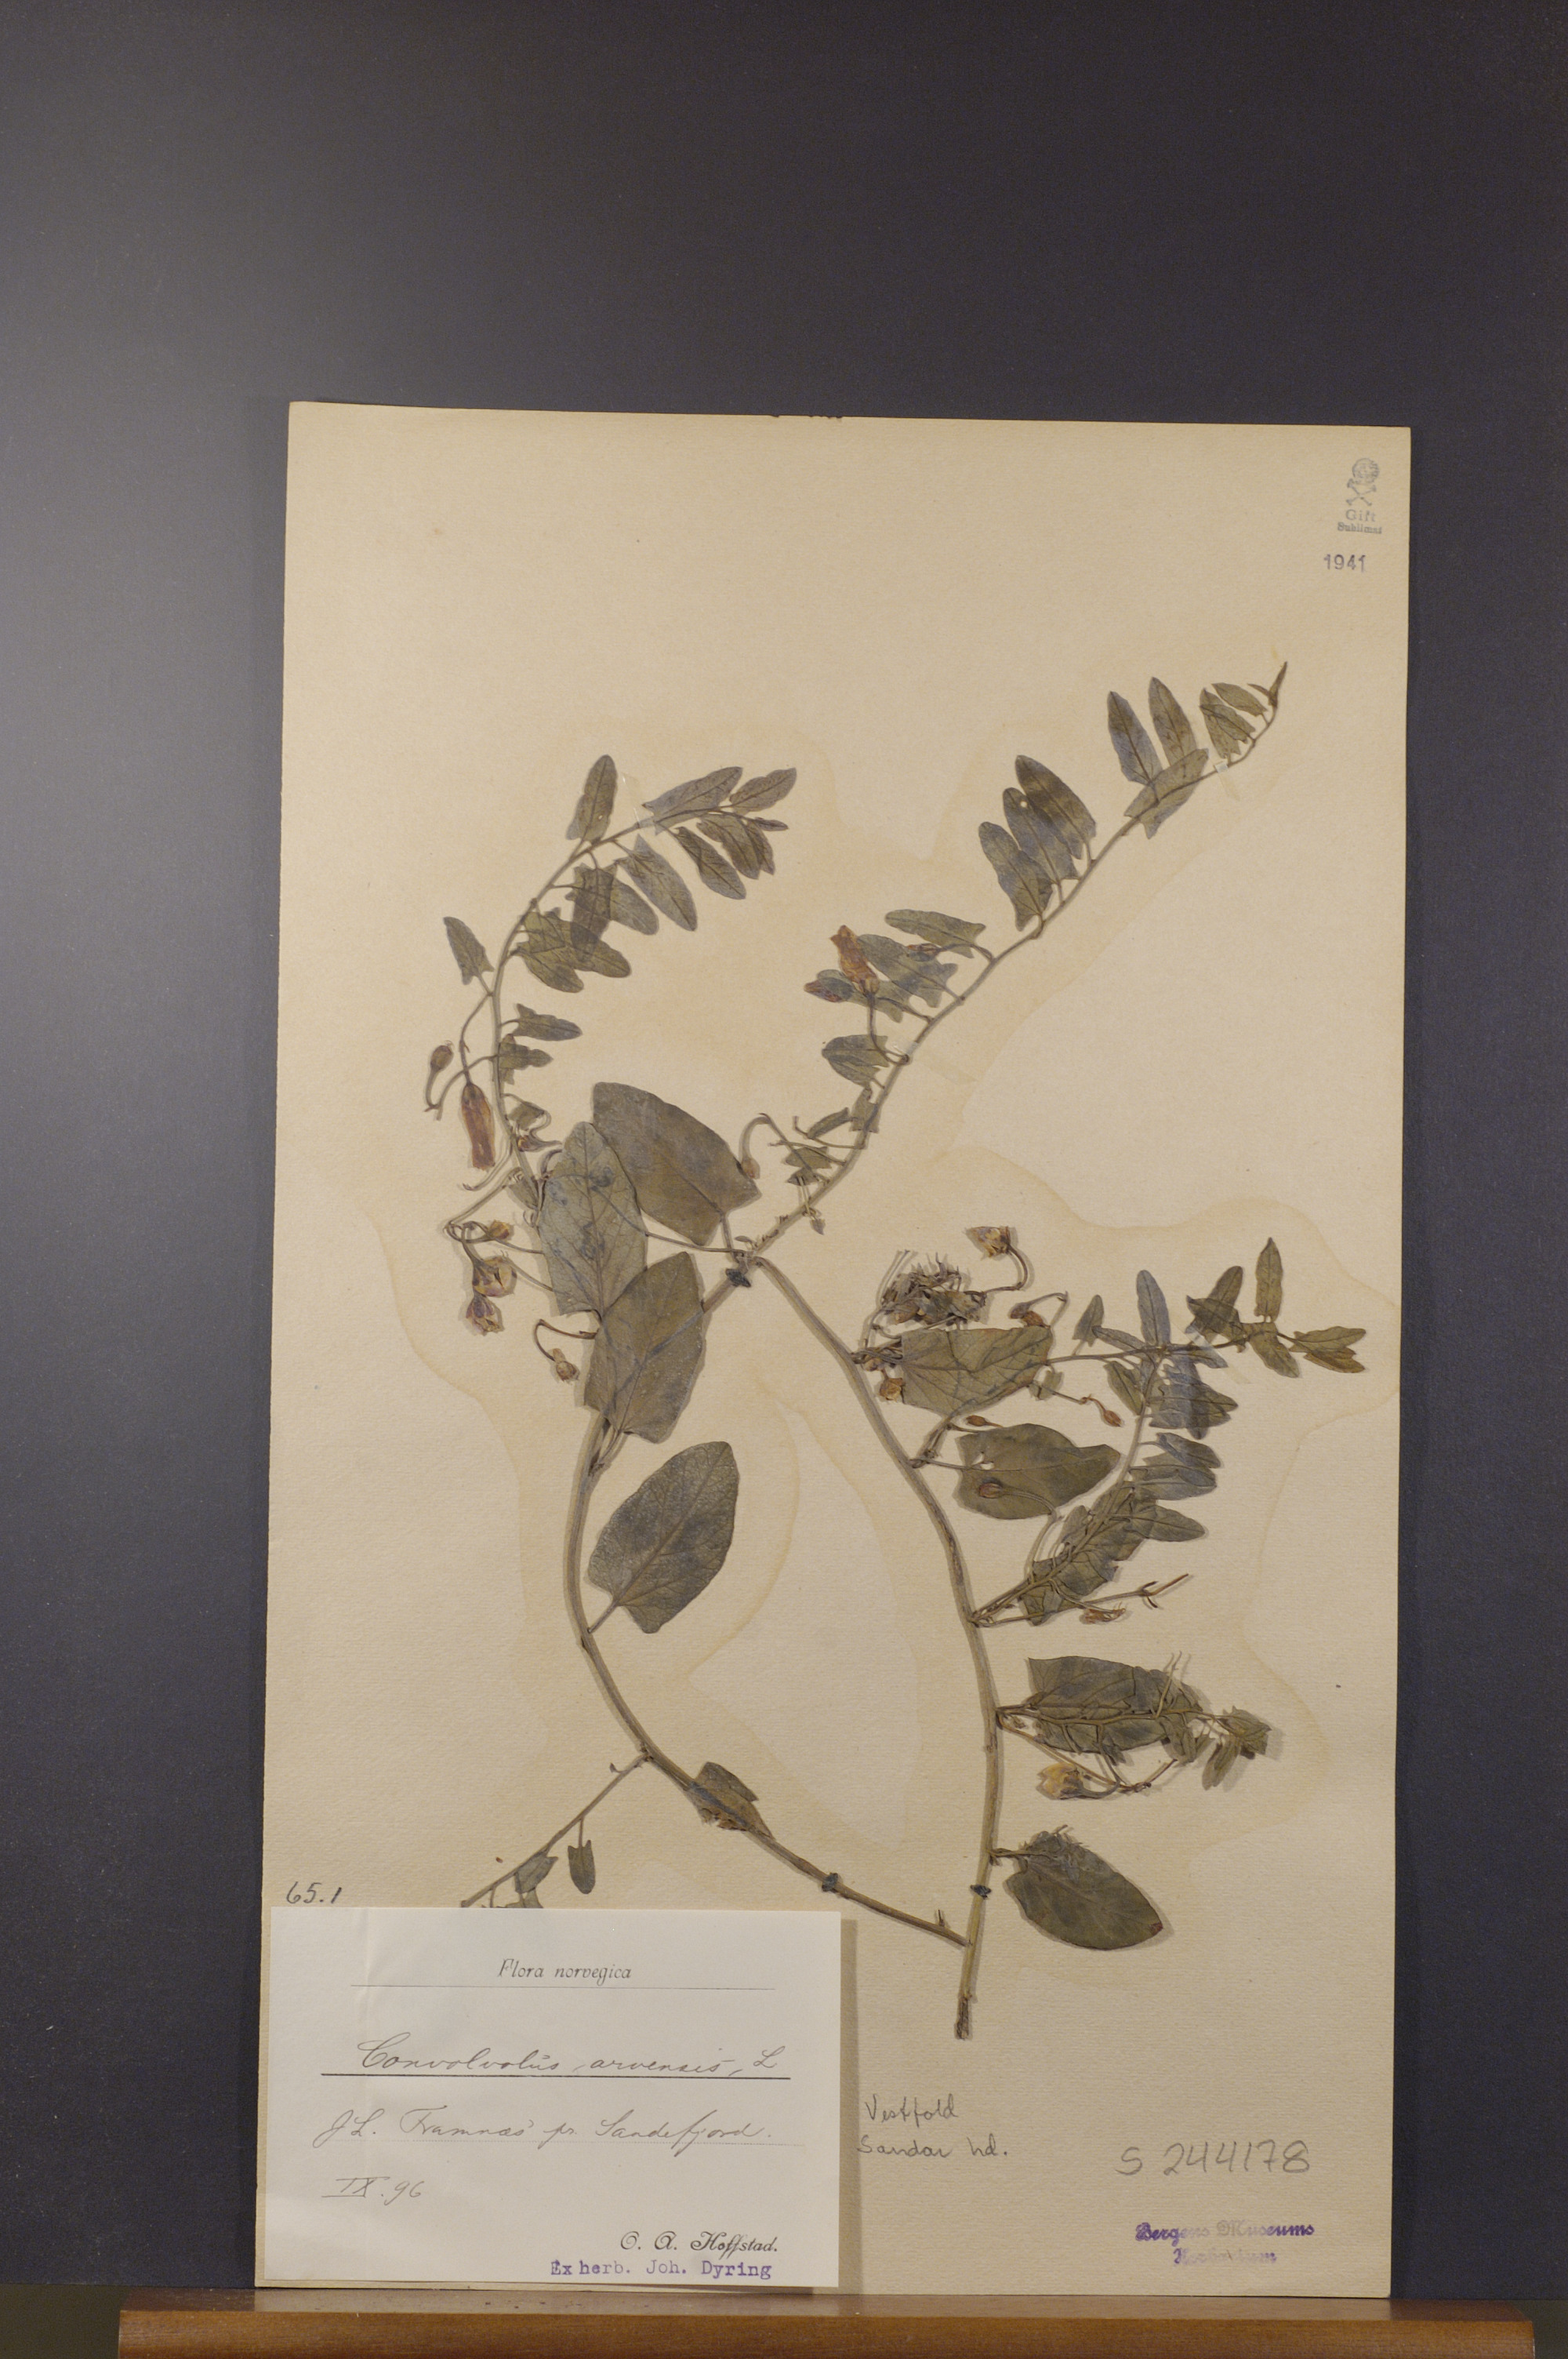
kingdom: Plantae
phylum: Tracheophyta
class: Magnoliopsida
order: Solanales
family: Convolvulaceae
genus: Convolvulus
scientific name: Convolvulus arvensis
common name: Field bindweed
